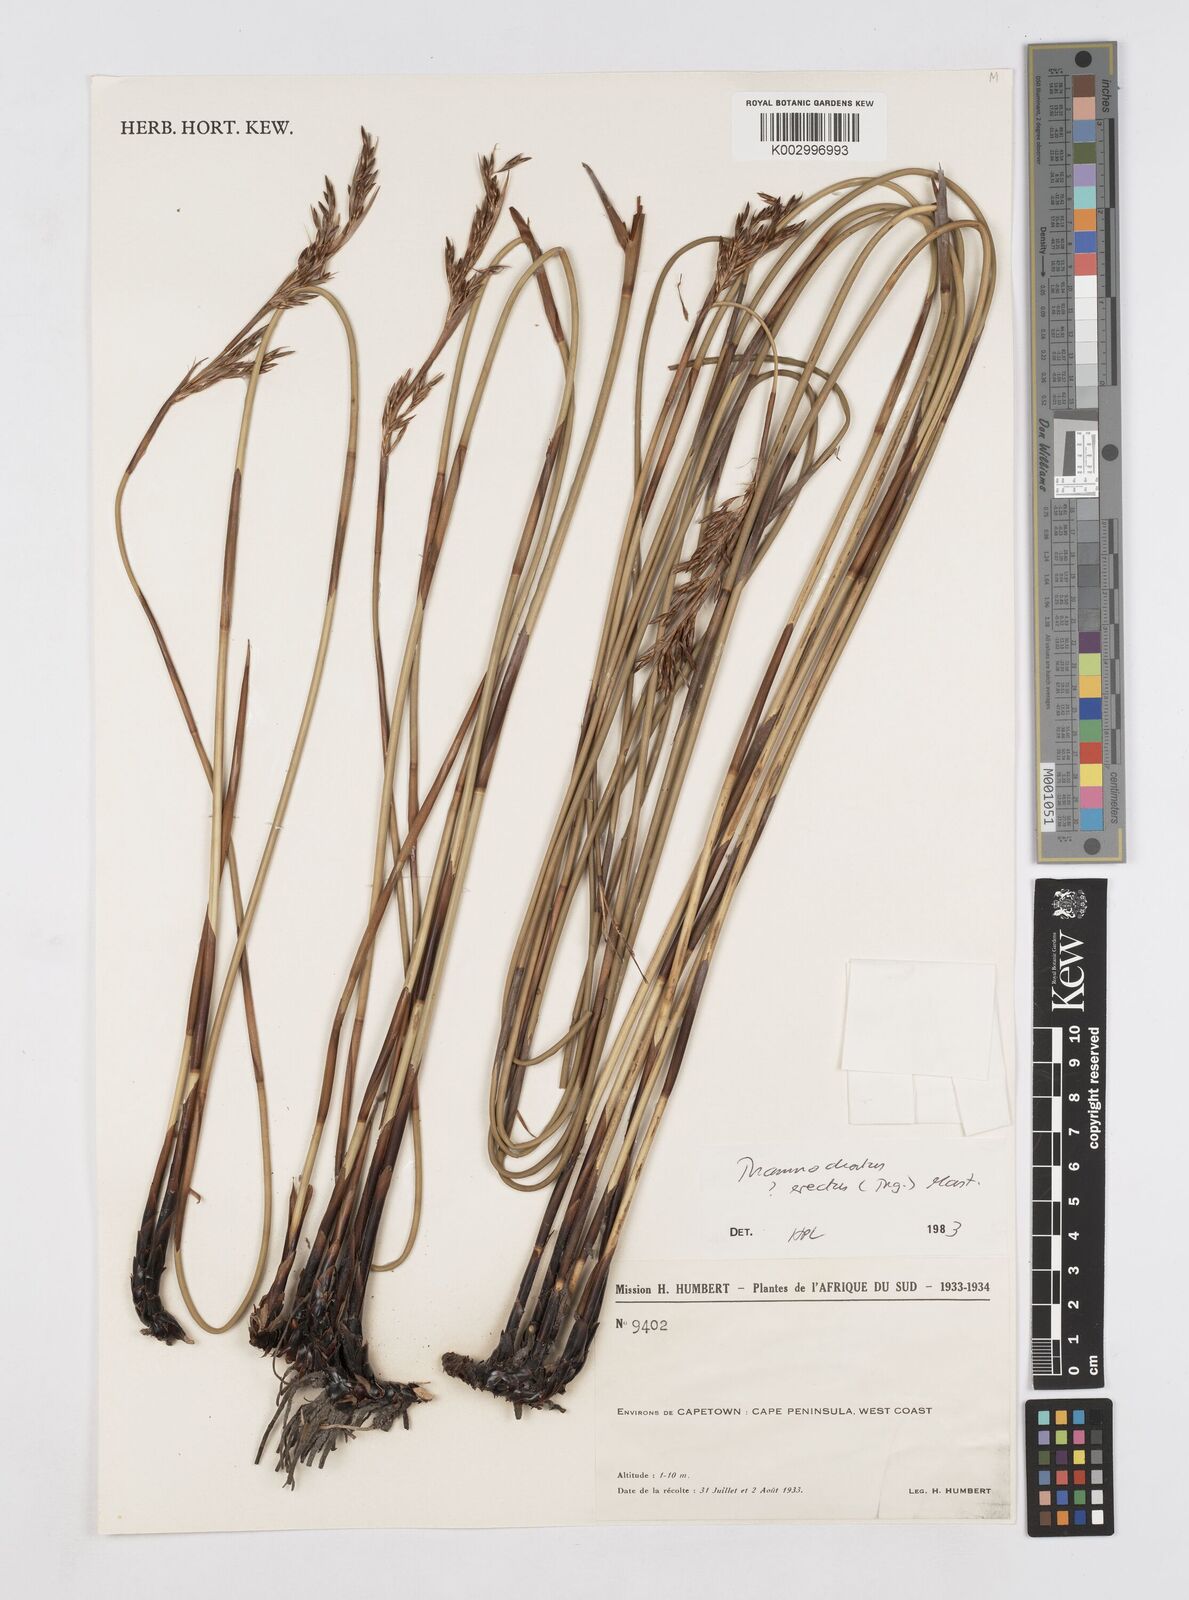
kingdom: Plantae
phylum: Tracheophyta
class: Liliopsida
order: Poales
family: Restionaceae
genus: Thamnochortus
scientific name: Thamnochortus erectus
